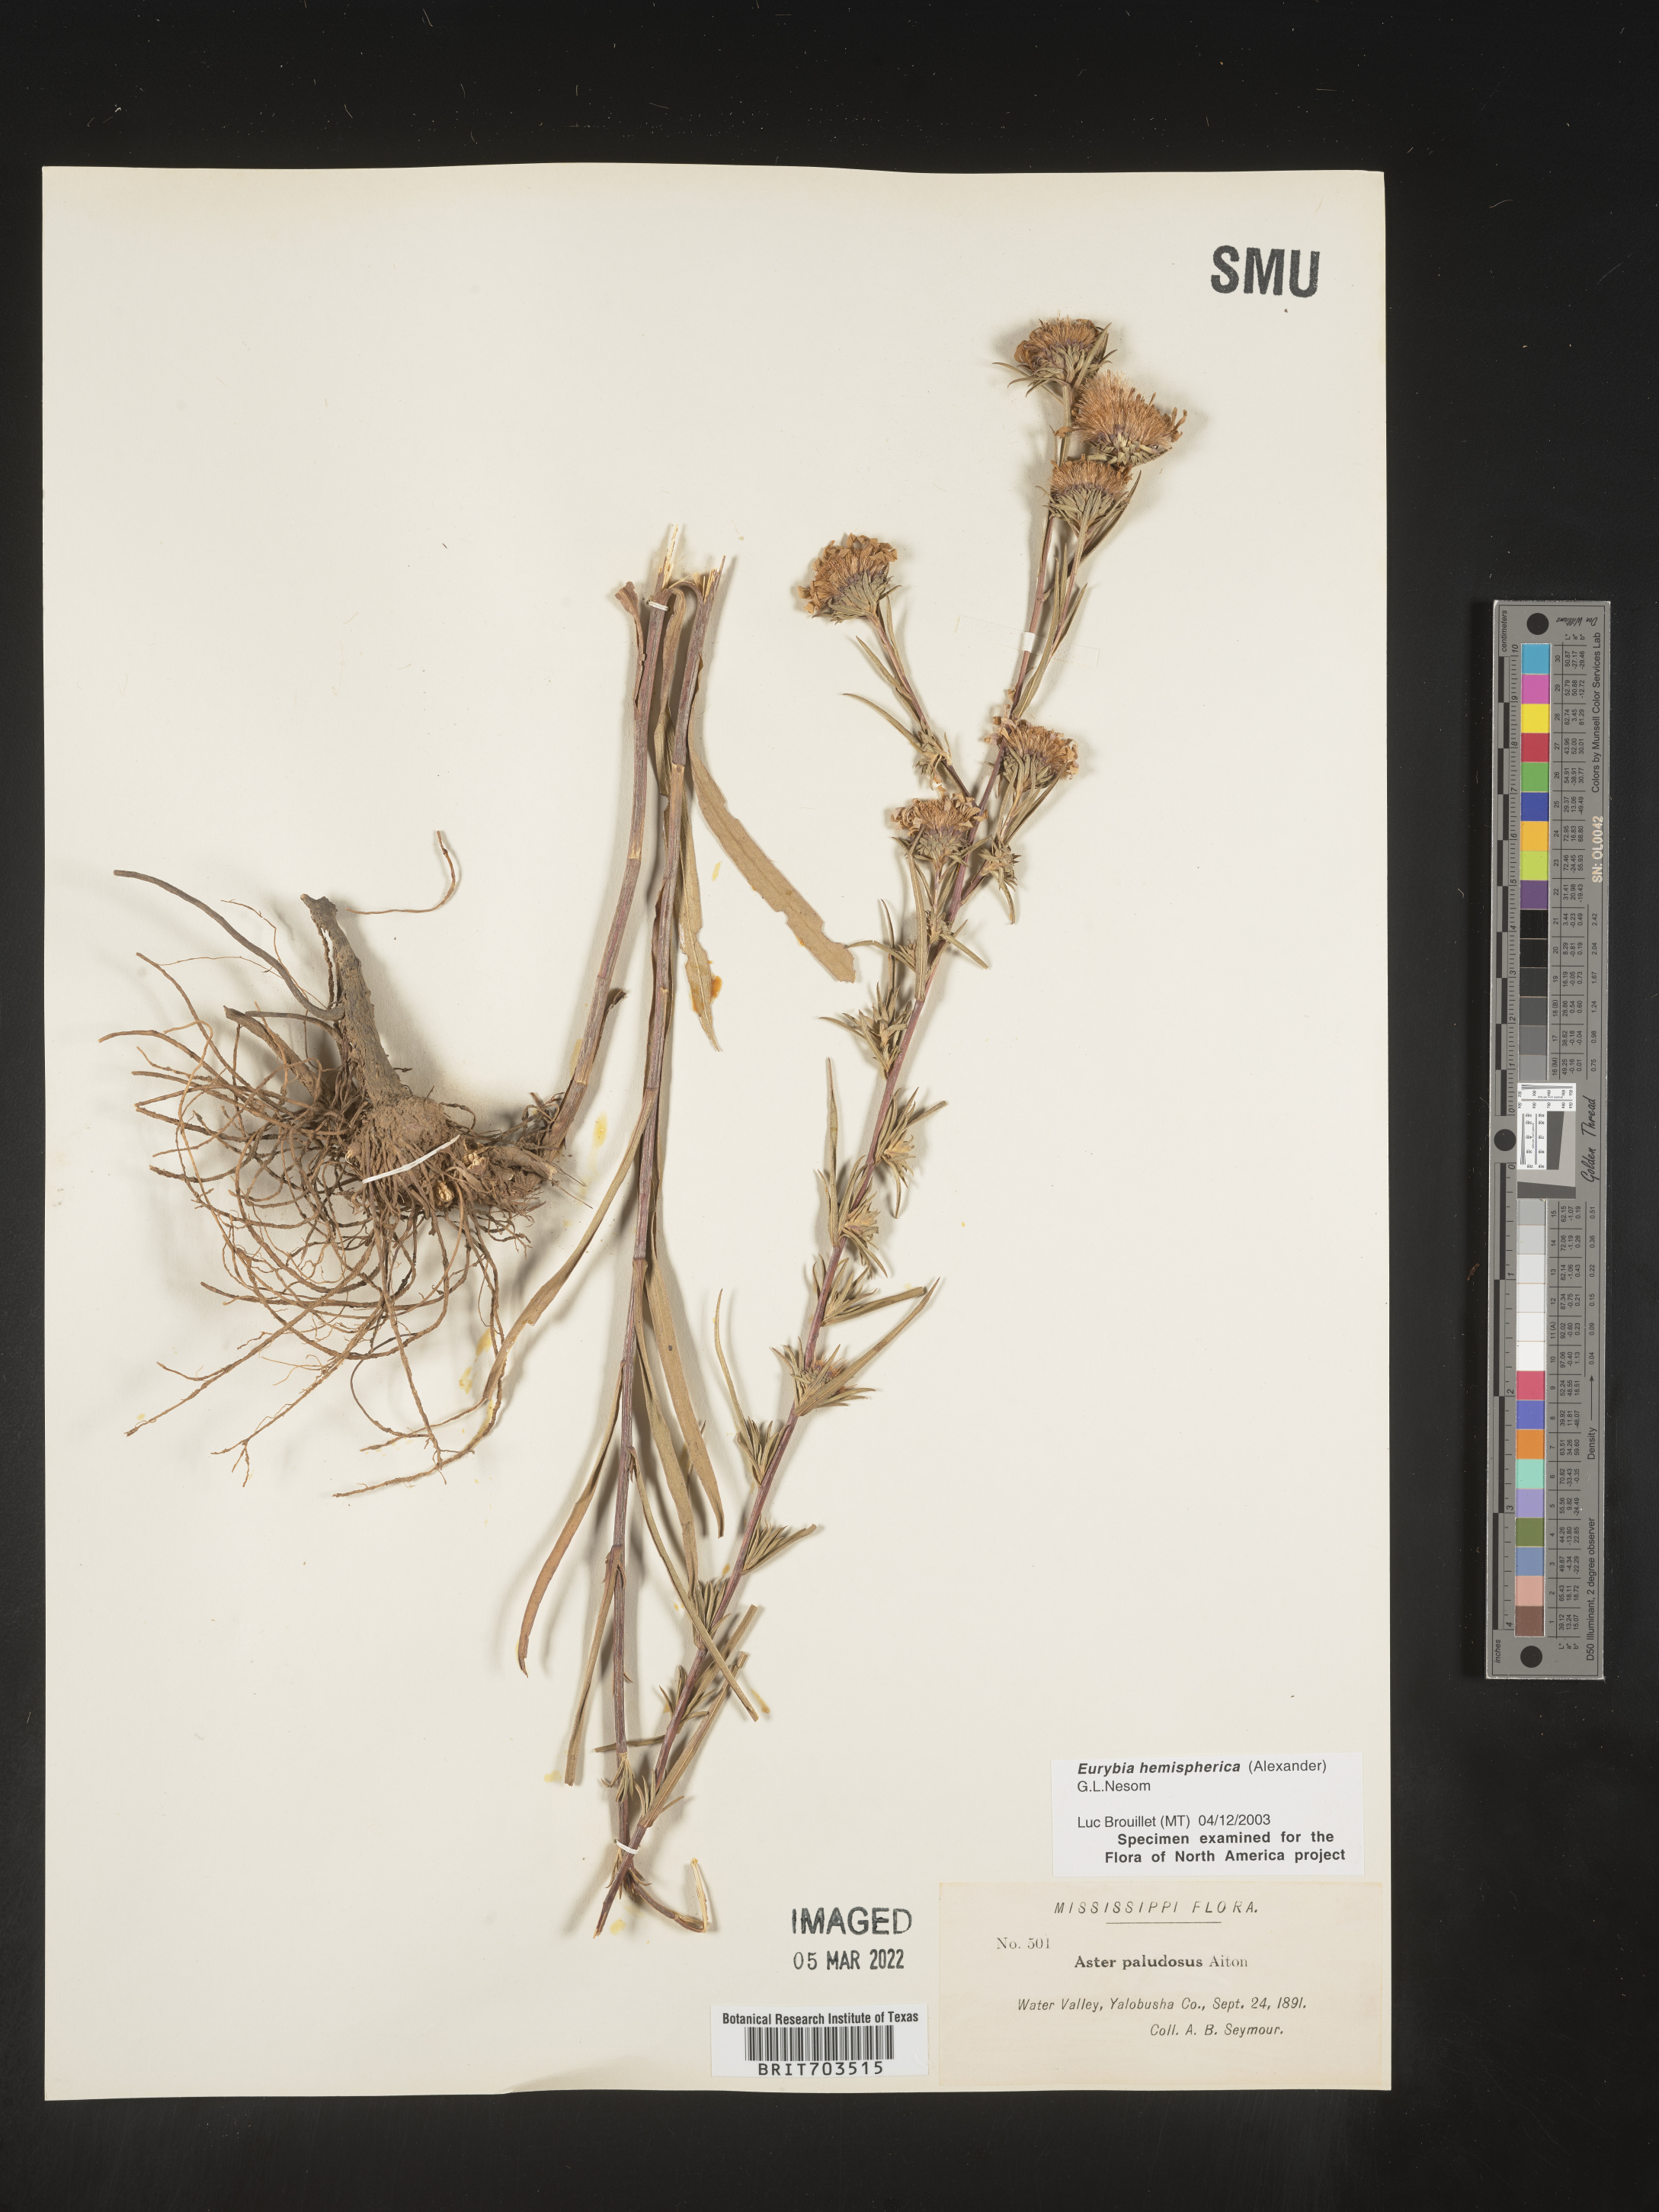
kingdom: Plantae
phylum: Tracheophyta
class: Magnoliopsida
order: Asterales
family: Asteraceae
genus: Eurybia
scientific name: Eurybia hemispherica
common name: Showy aster
